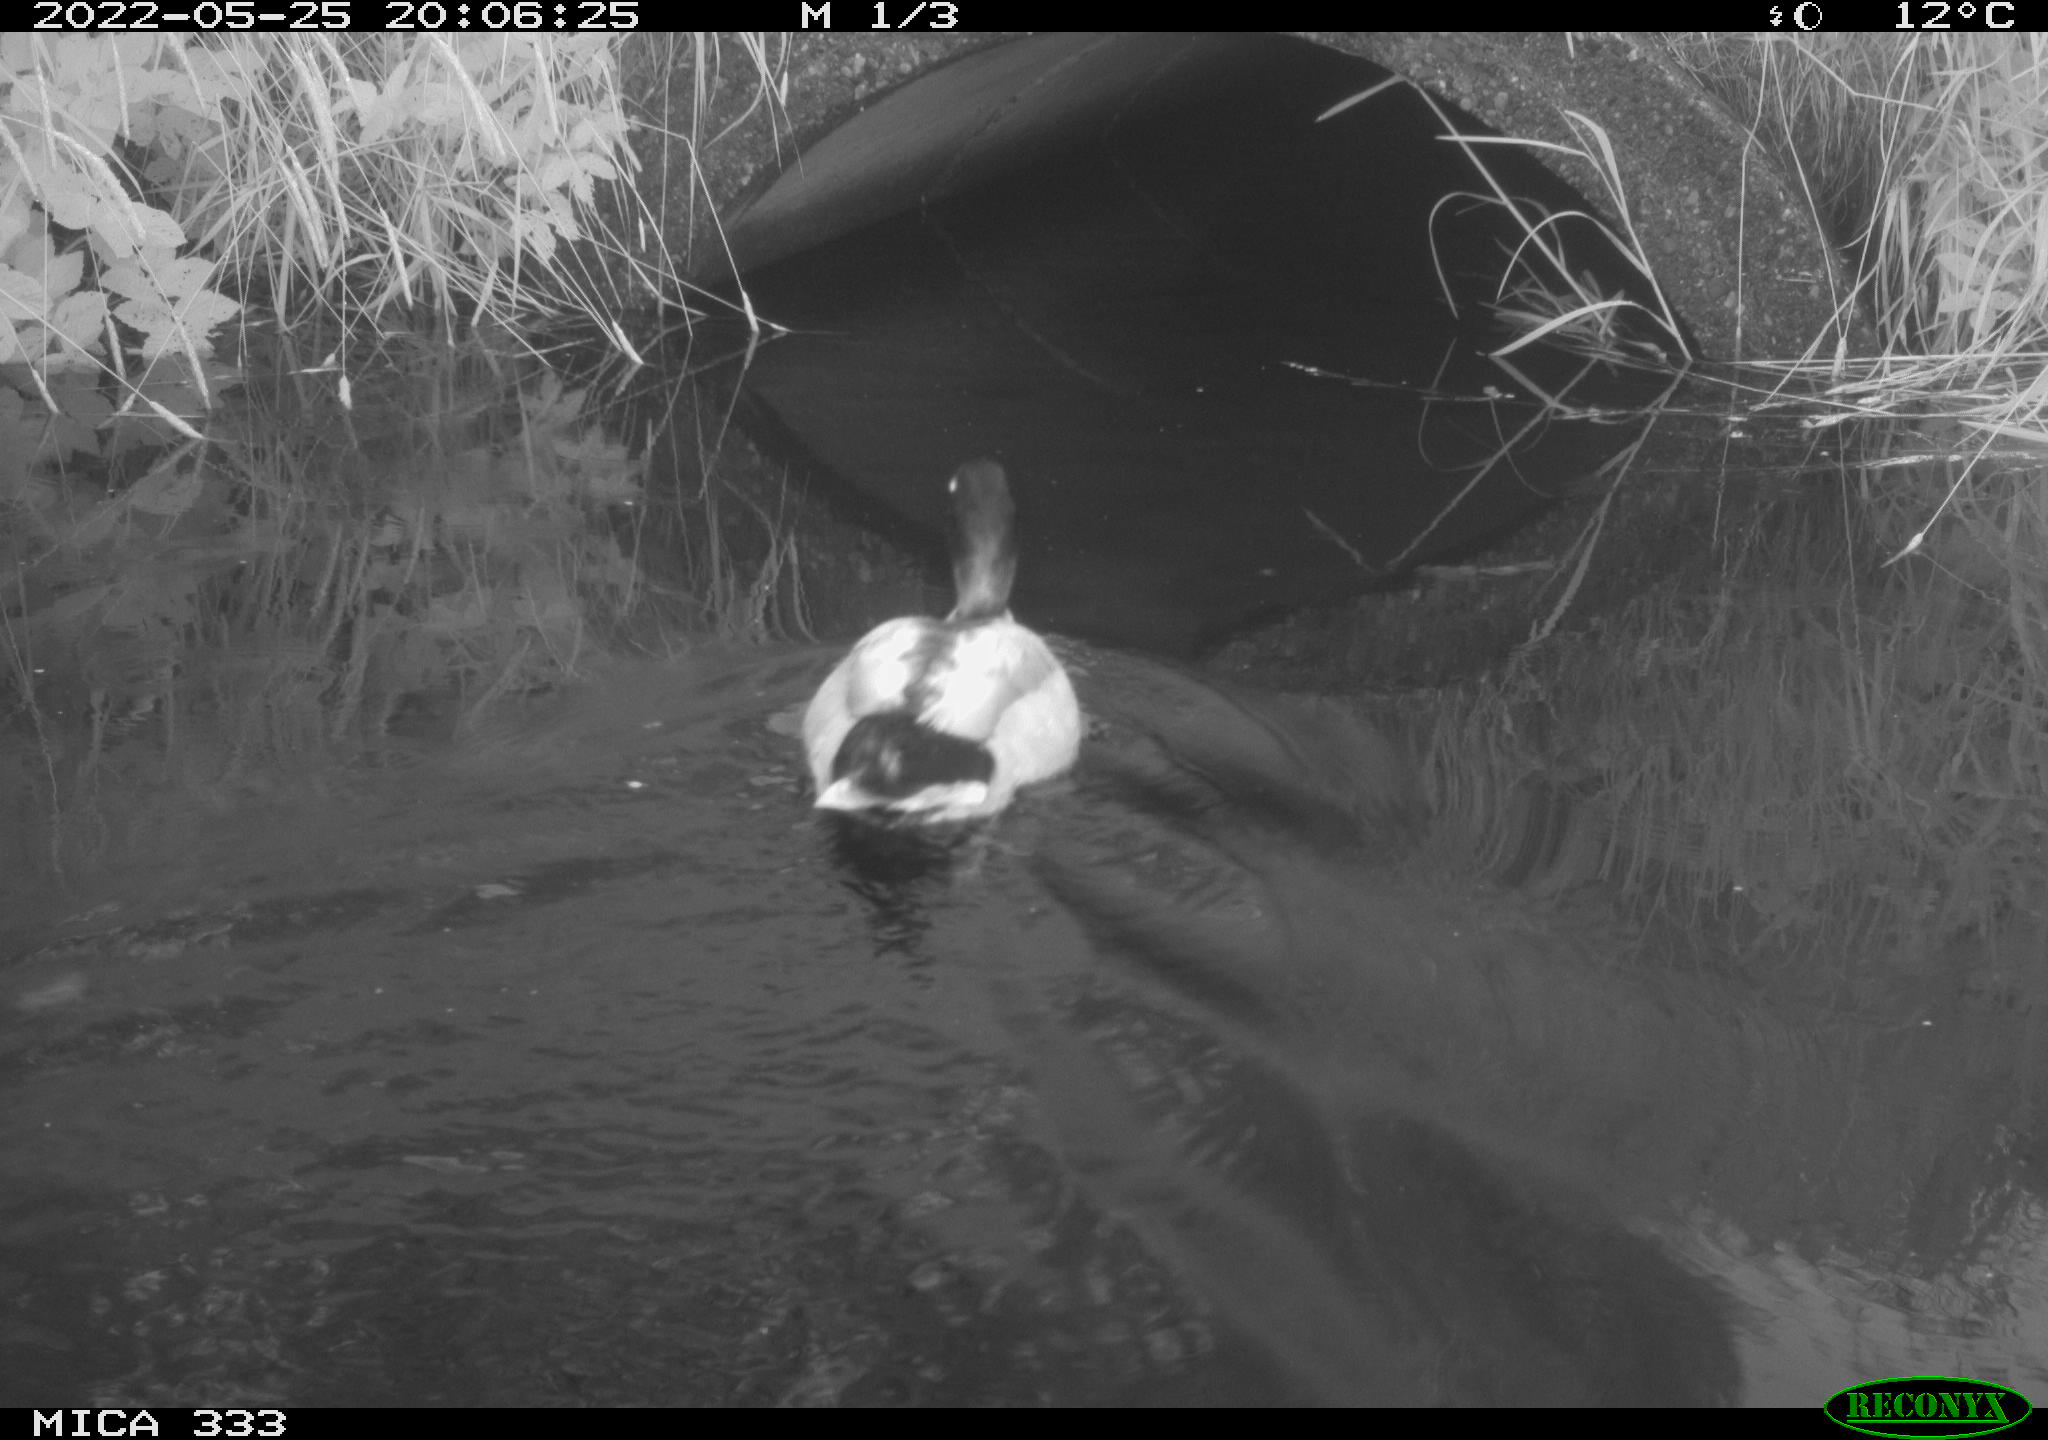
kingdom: Animalia
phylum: Chordata
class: Aves
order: Anseriformes
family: Anatidae
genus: Anas
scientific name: Anas platyrhynchos
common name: Mallard
